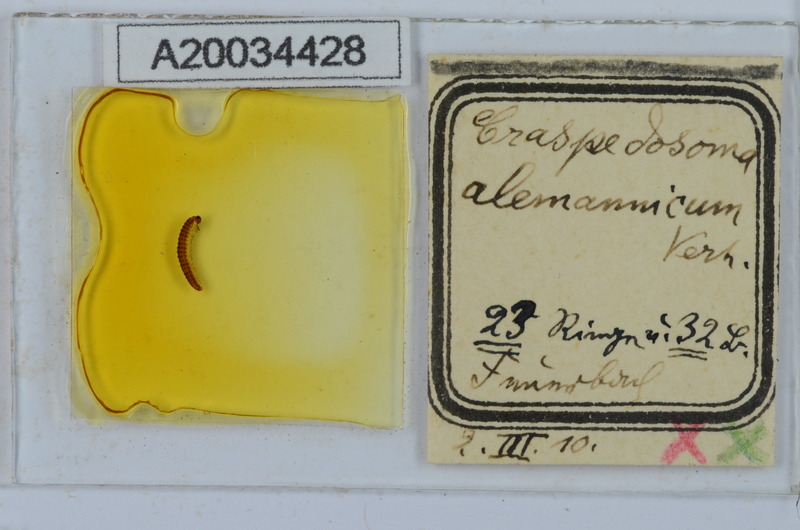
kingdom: Animalia
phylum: Arthropoda
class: Diplopoda
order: Chordeumatida
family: Craspedosomatidae
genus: Craspedosoma
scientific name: Craspedosoma alemannicum
